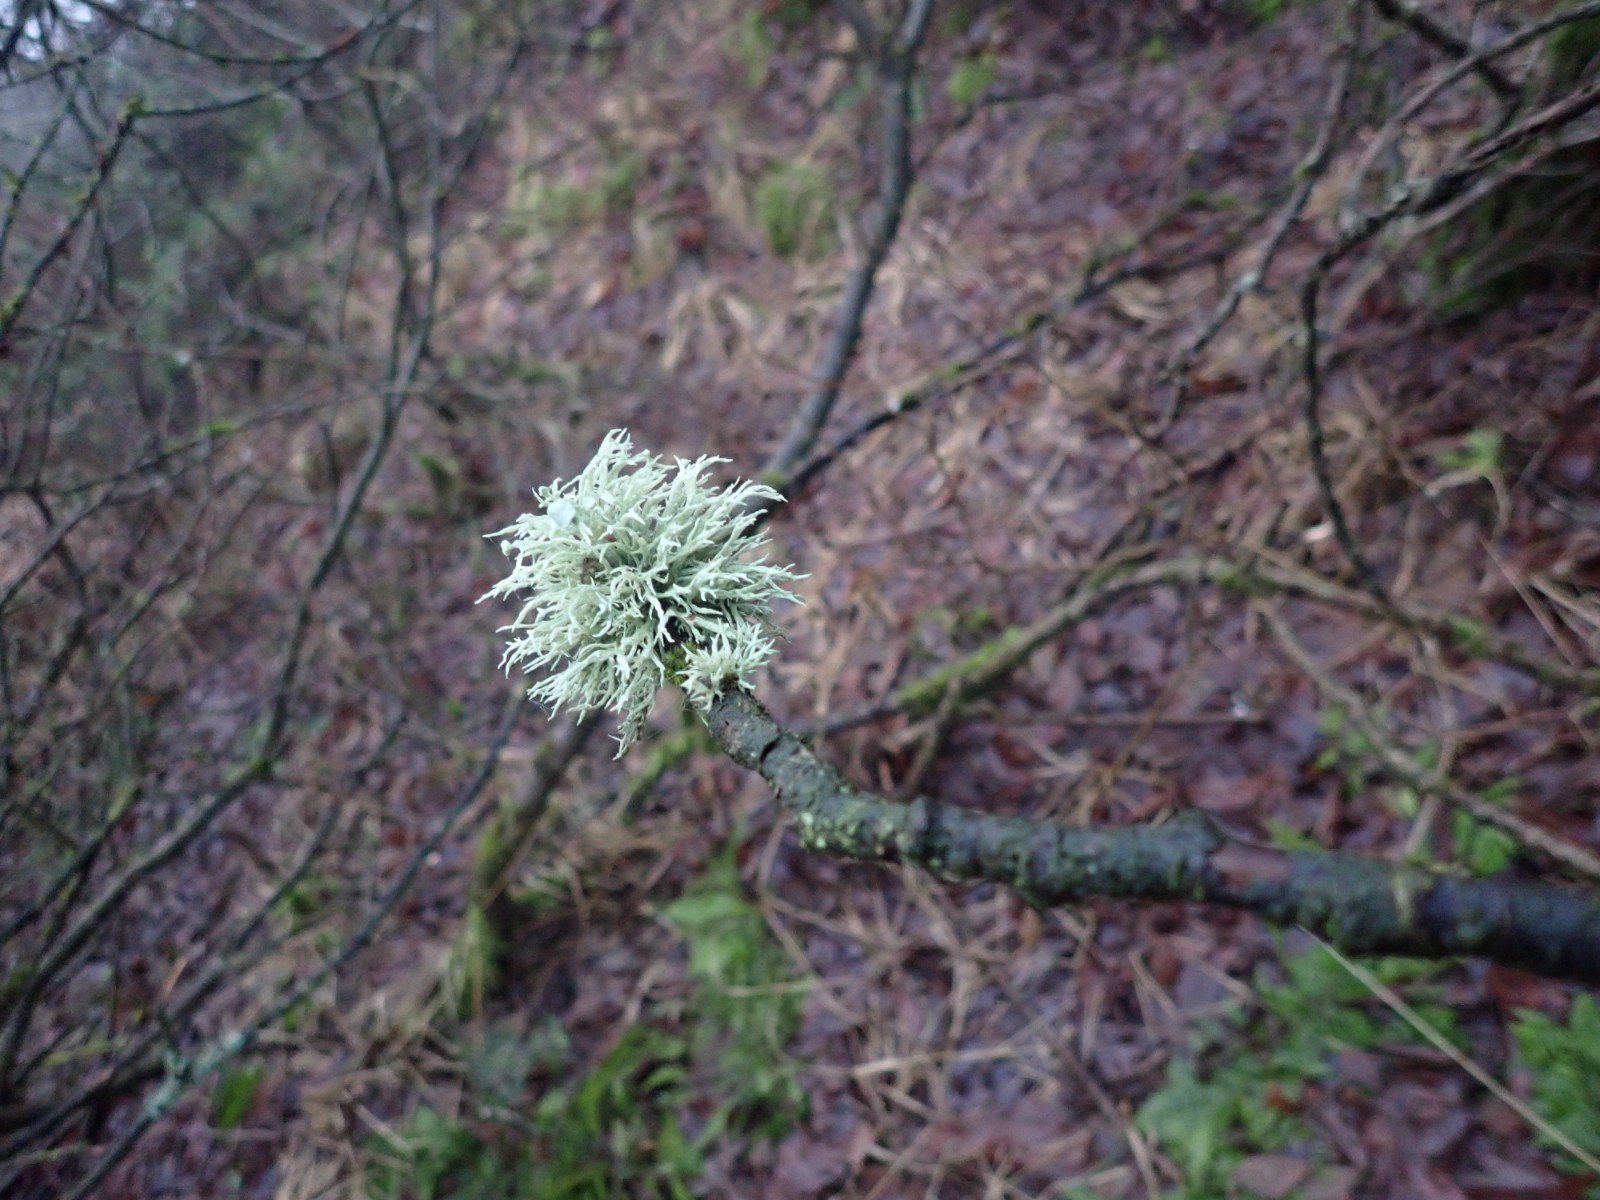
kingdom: Fungi
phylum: Ascomycota
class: Lecanoromycetes
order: Lecanorales
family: Ramalinaceae
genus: Ramalina
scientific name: Ramalina fastigiata
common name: tue-grenlav
